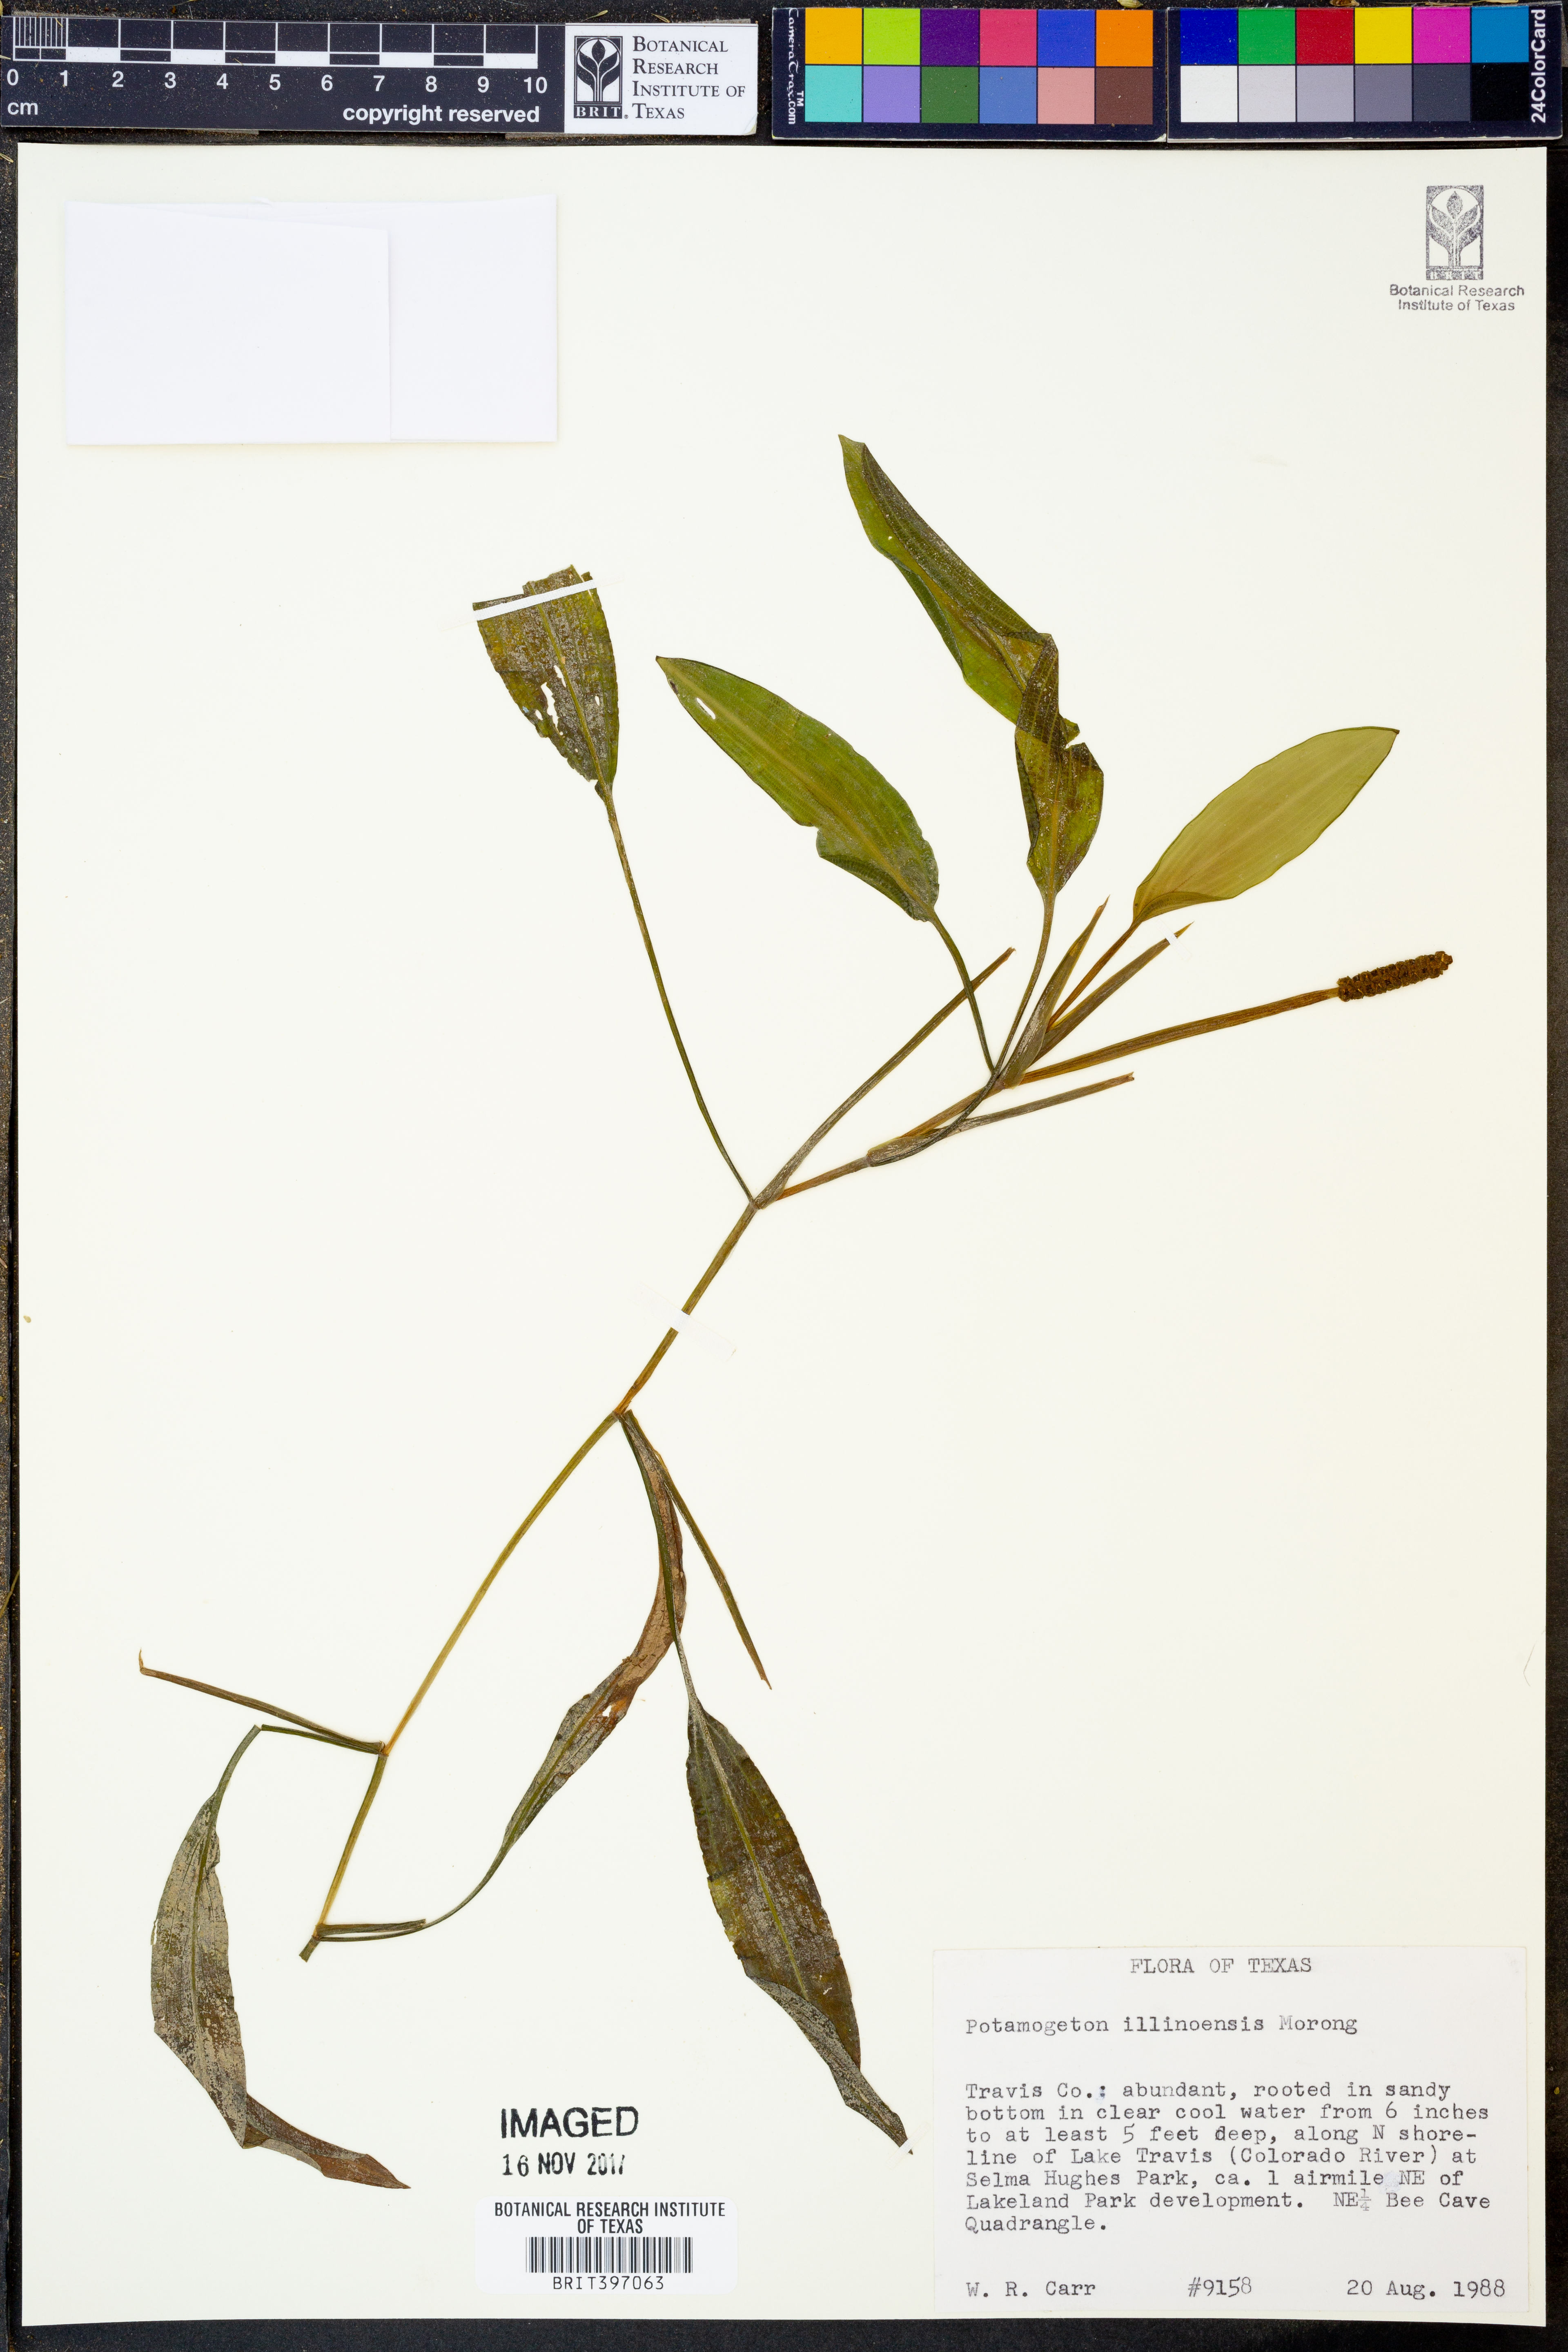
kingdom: Plantae
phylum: Tracheophyta
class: Liliopsida
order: Alismatales
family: Potamogetonaceae
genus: Potamogeton
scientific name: Potamogeton illinoensis
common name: Illinois pondweed
